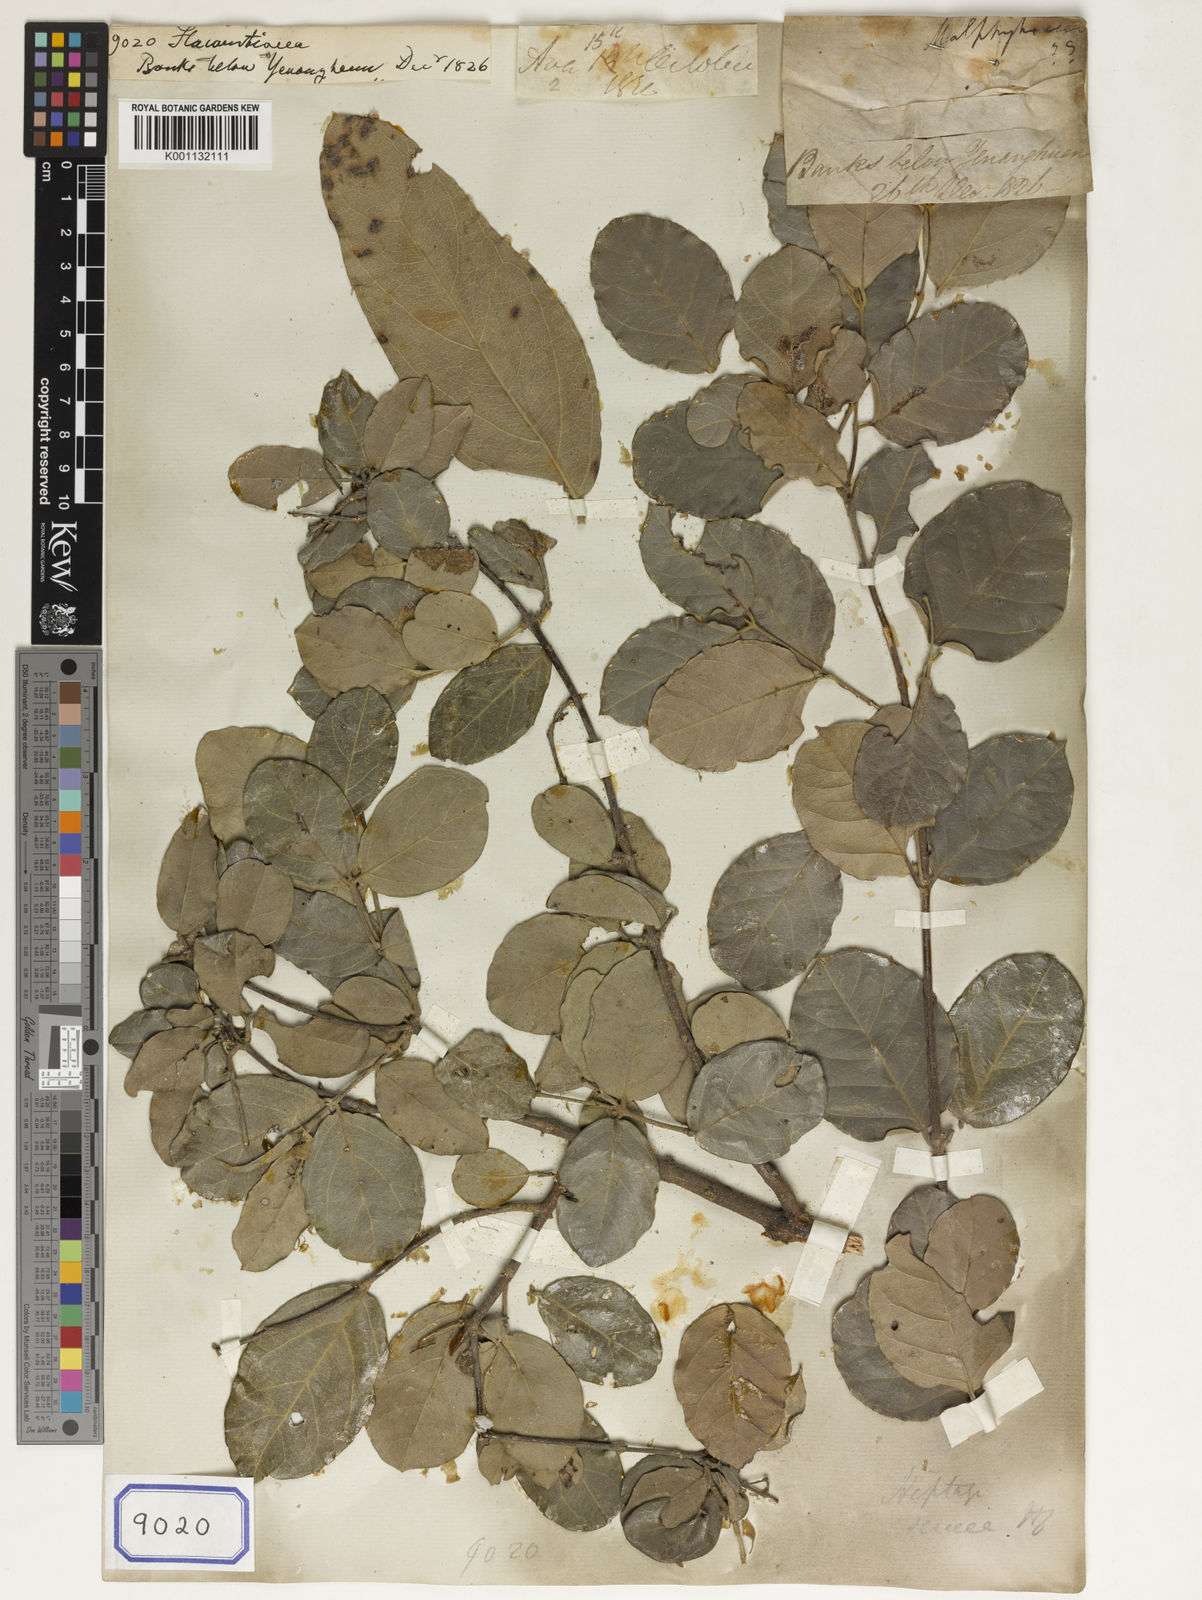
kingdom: Plantae
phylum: Tracheophyta
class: Magnoliopsida
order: Malpighiales
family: Flacourtiaceae
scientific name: Flacourtiaceae
